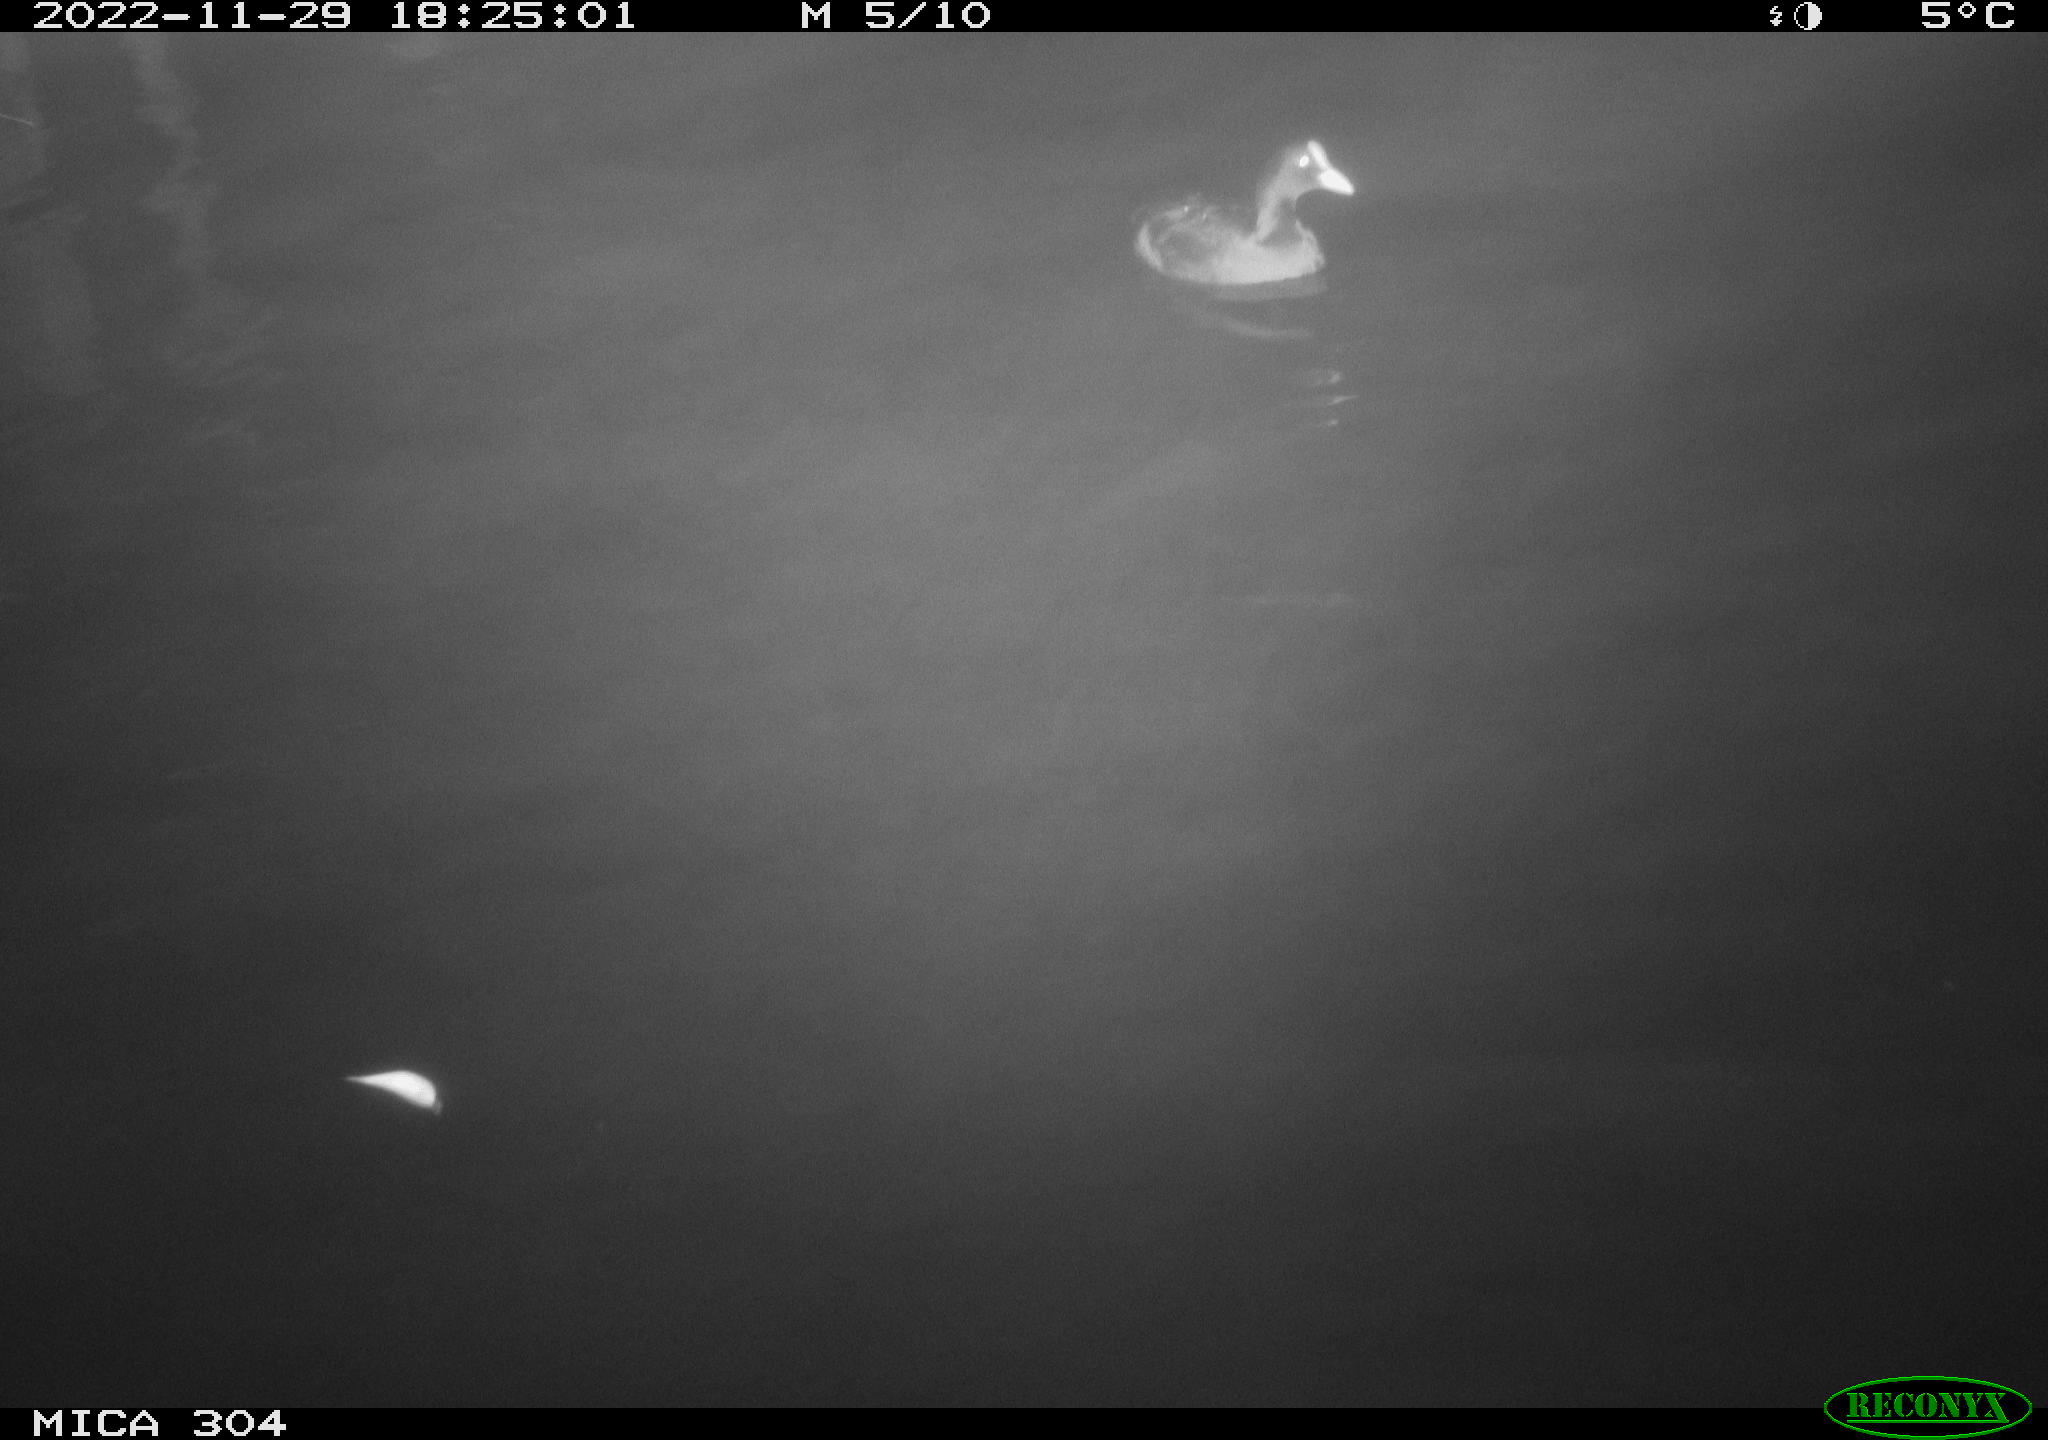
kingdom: Animalia
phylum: Chordata
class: Aves
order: Gruiformes
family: Rallidae
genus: Fulica
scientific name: Fulica atra
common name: Eurasian coot
